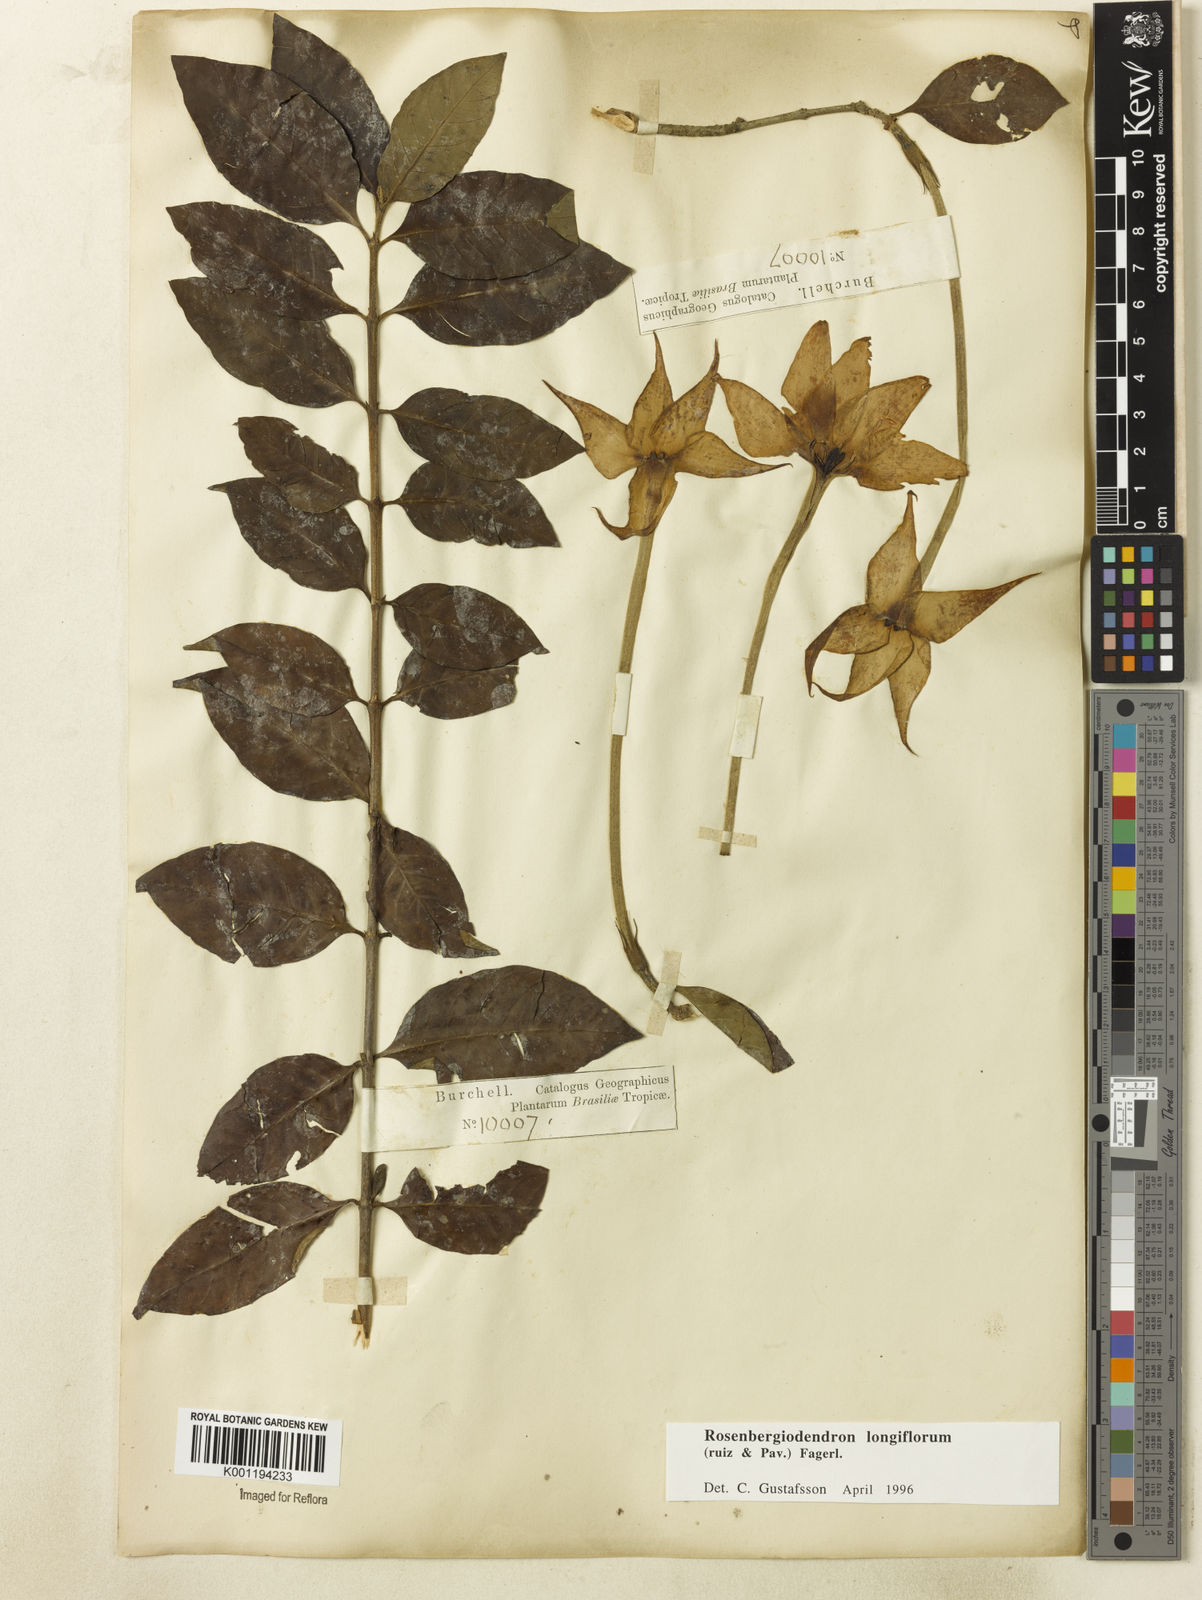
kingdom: Plantae
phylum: Tracheophyta
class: Magnoliopsida
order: Gentianales
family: Rubiaceae
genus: Rosenbergiodendron
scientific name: Rosenbergiodendron longiflorum
